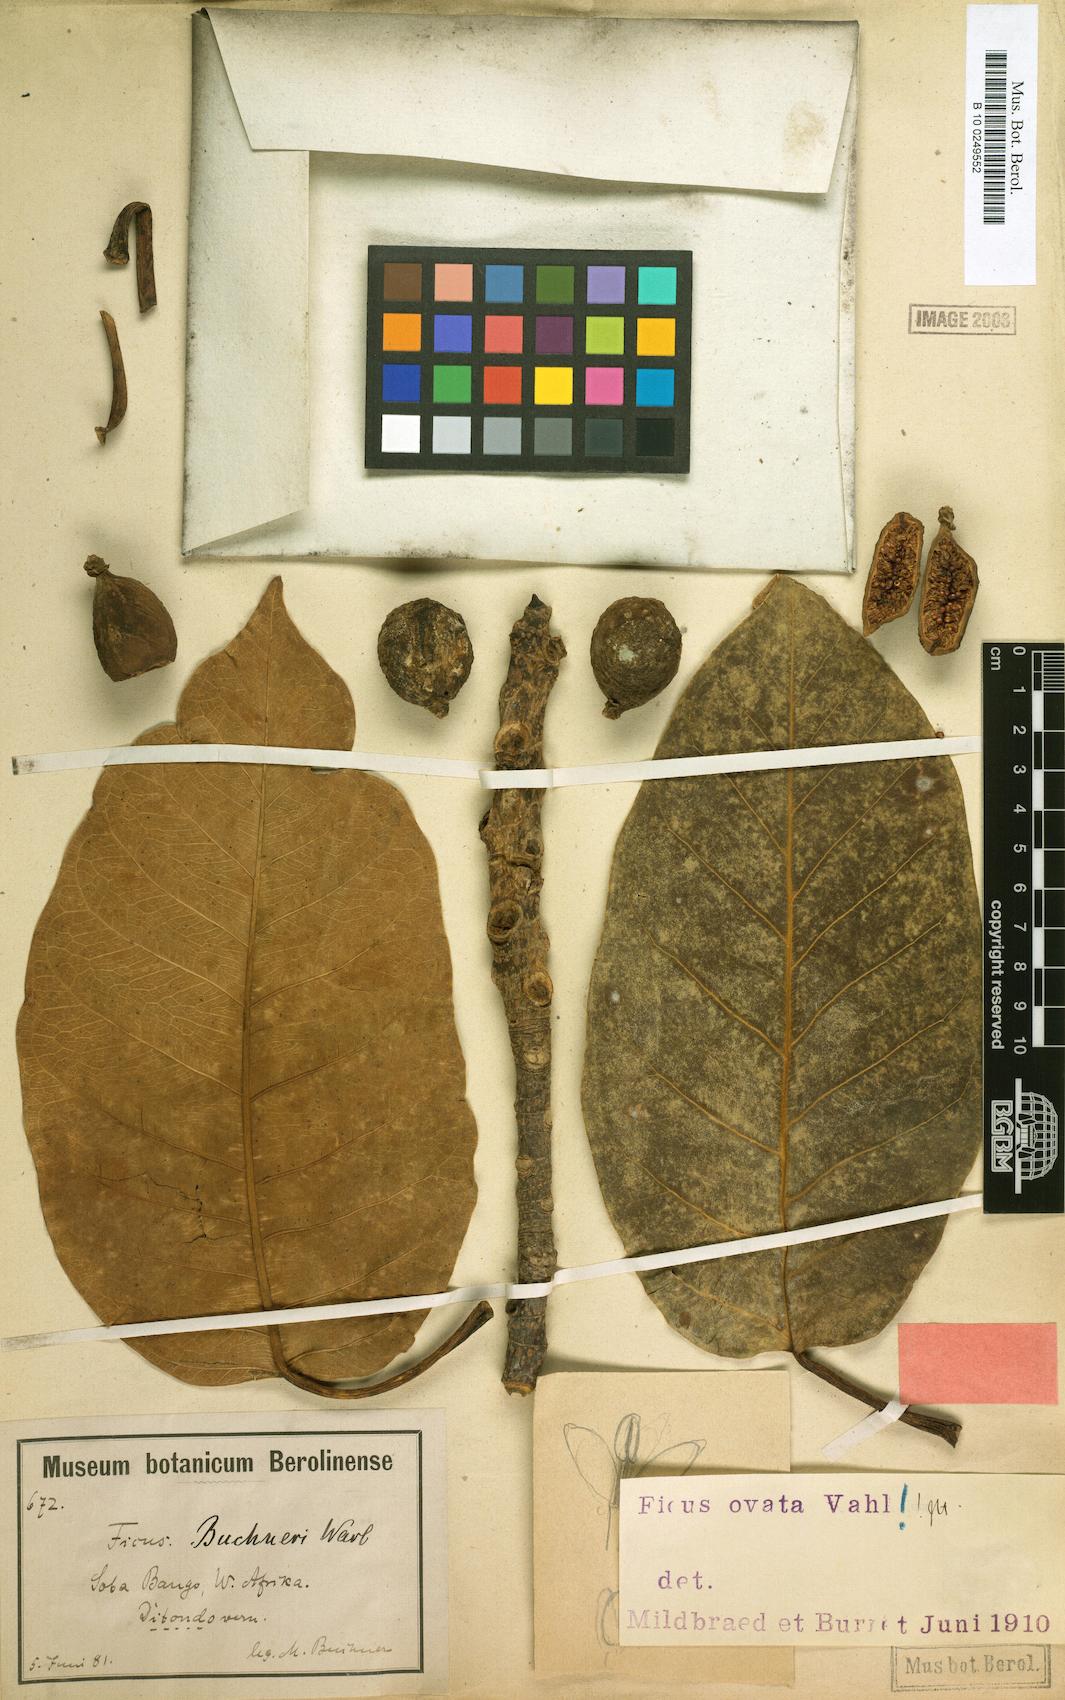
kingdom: Plantae
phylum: Tracheophyta
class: Magnoliopsida
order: Rosales
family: Moraceae
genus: Ficus
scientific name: Ficus laurifolia
